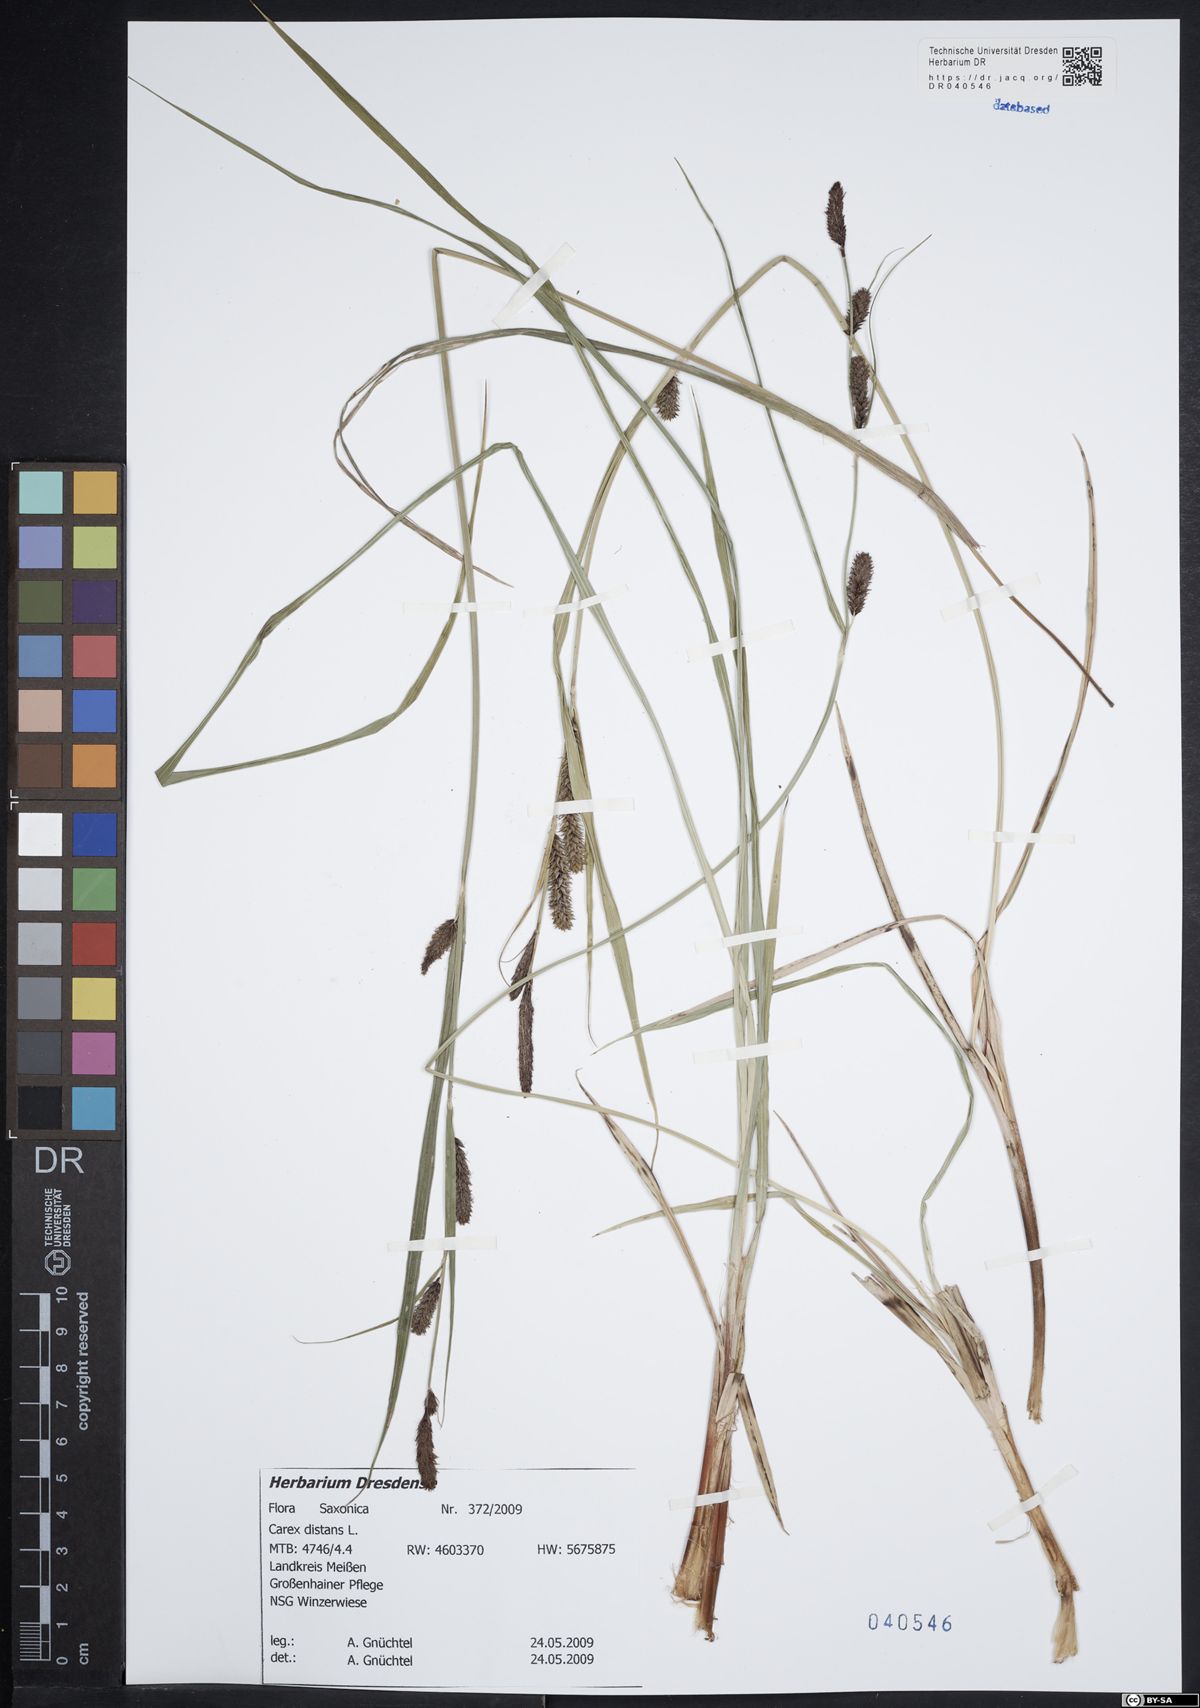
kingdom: Plantae
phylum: Tracheophyta
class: Liliopsida
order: Poales
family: Cyperaceae
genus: Carex
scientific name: Carex distans
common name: Distant sedge
